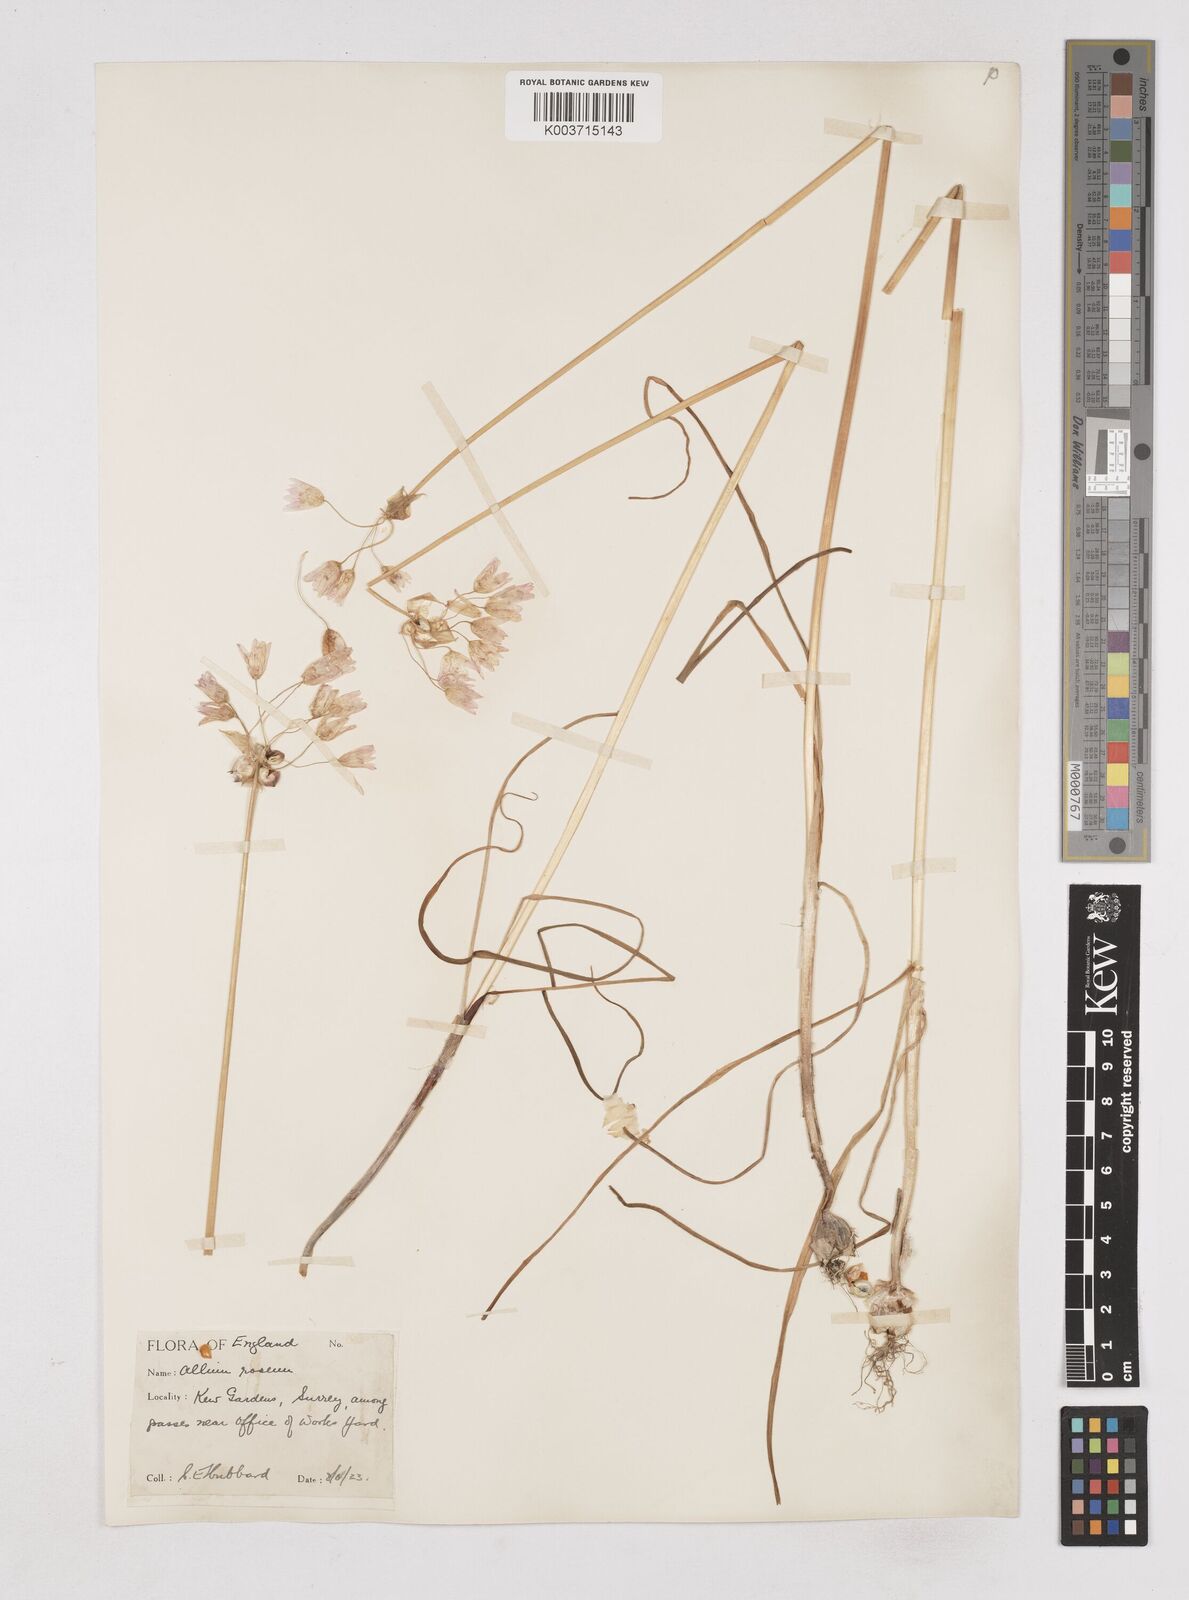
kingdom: Plantae
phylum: Tracheophyta
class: Liliopsida
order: Asparagales
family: Amaryllidaceae
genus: Allium
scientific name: Allium roseum
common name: Rosy garlic
